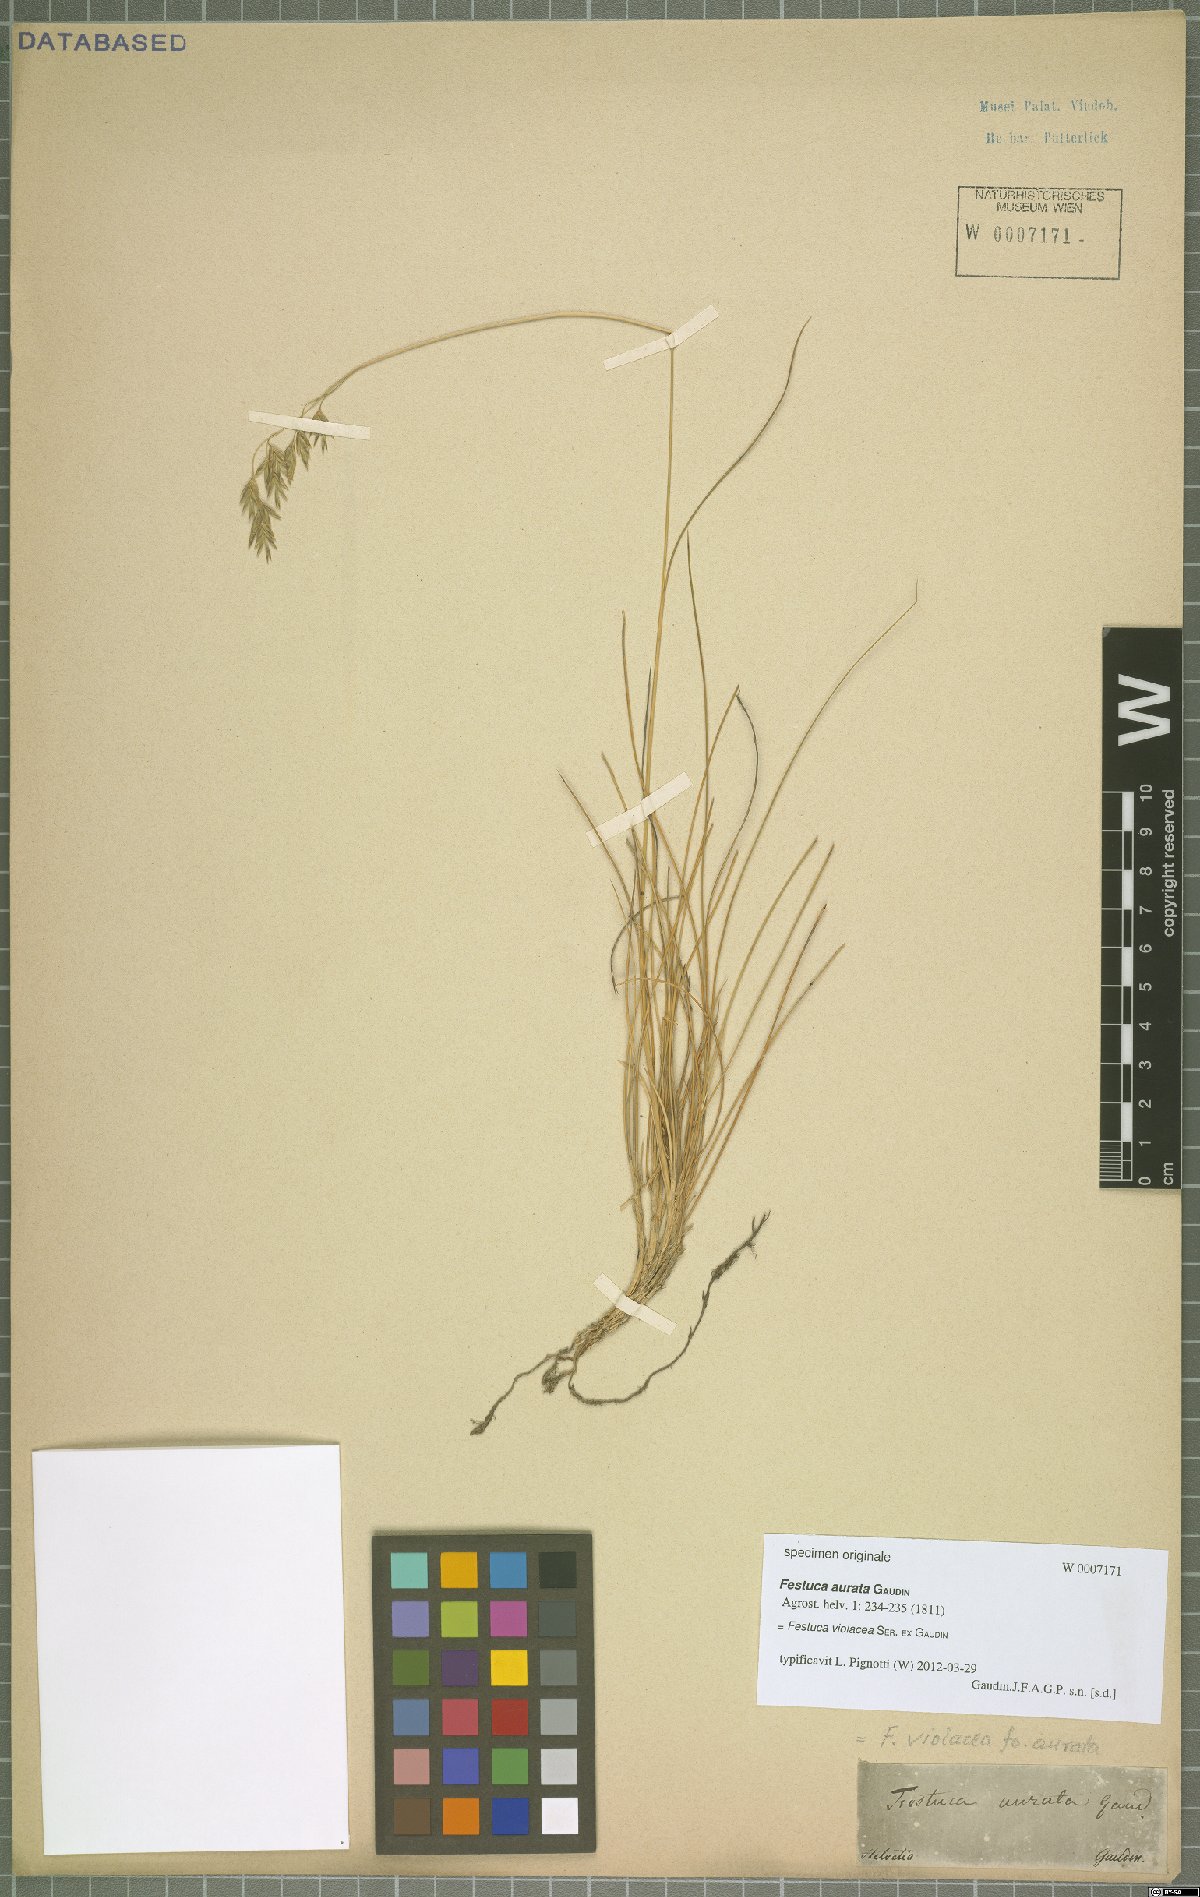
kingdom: Plantae
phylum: Tracheophyta
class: Liliopsida
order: Poales
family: Poaceae
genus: Festuca
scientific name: Festuca violacea
